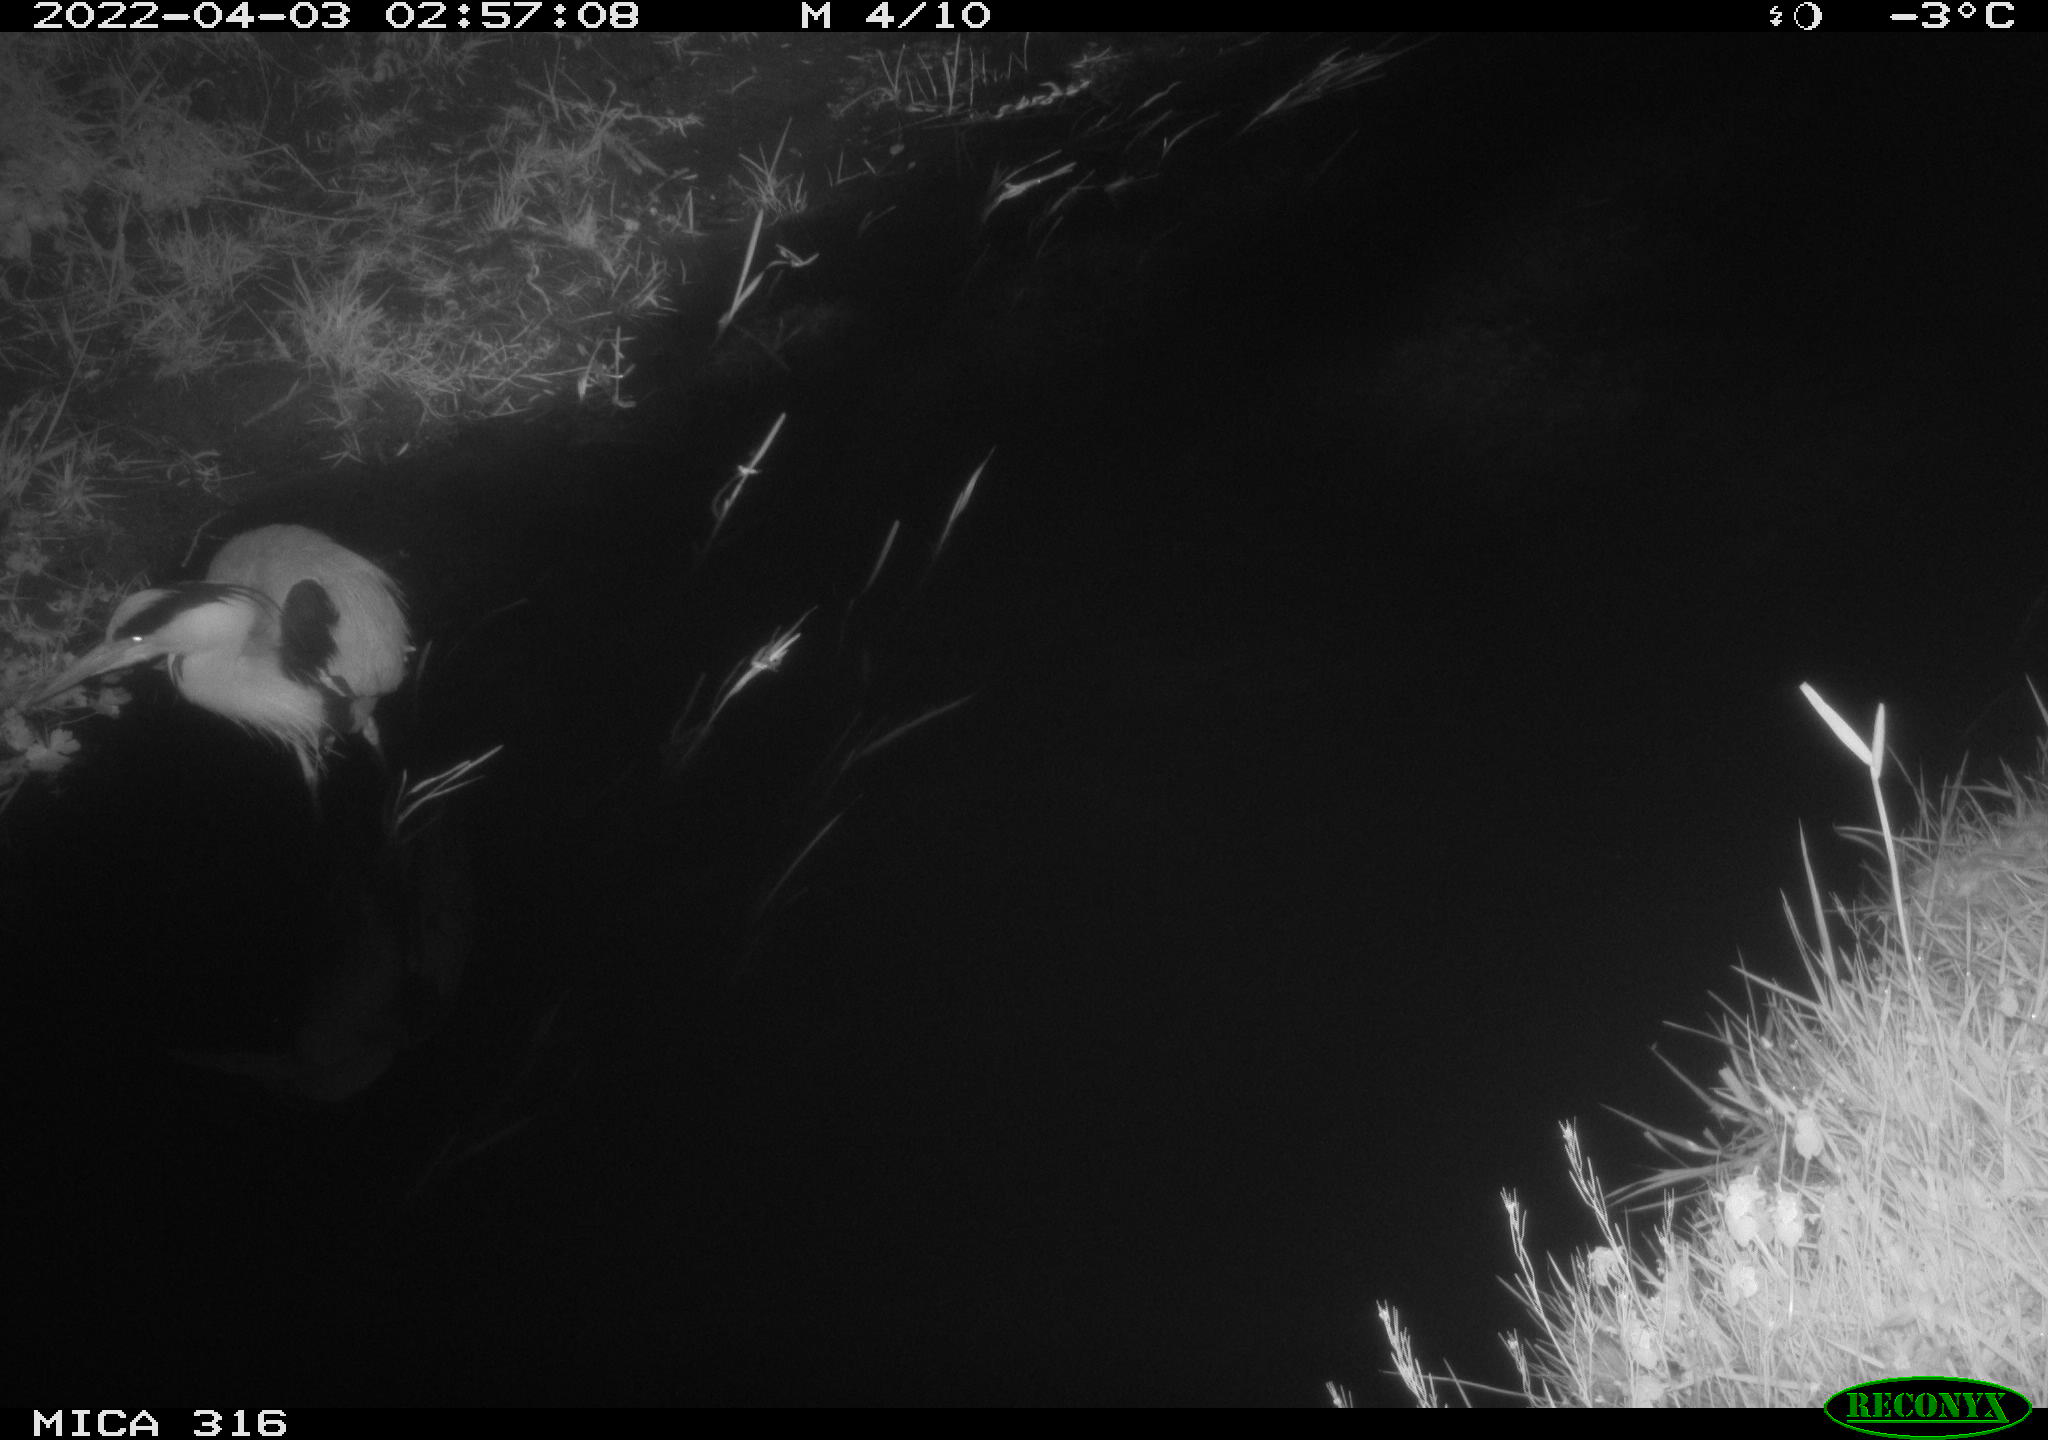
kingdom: Animalia
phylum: Chordata
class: Aves
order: Pelecaniformes
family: Ardeidae
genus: Ardea
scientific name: Ardea
